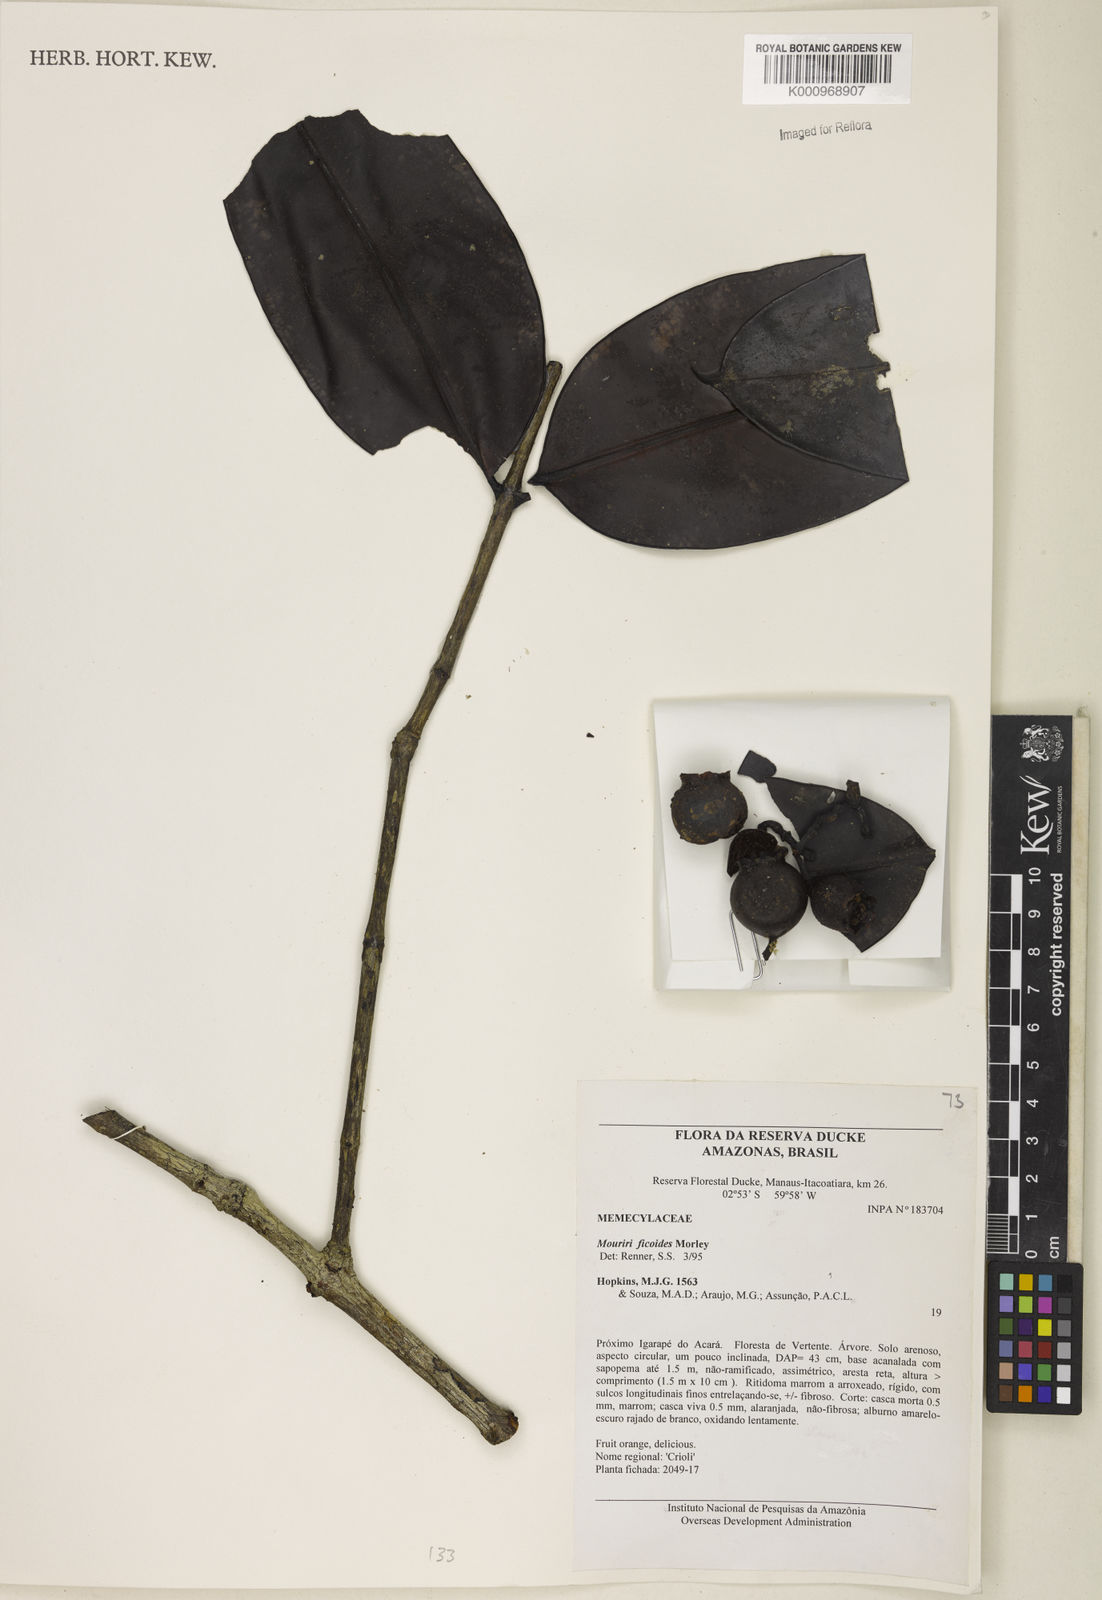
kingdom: Plantae
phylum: Tracheophyta
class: Magnoliopsida
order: Myrtales
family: Melastomataceae
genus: Mouriri
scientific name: Mouriri ficoides
